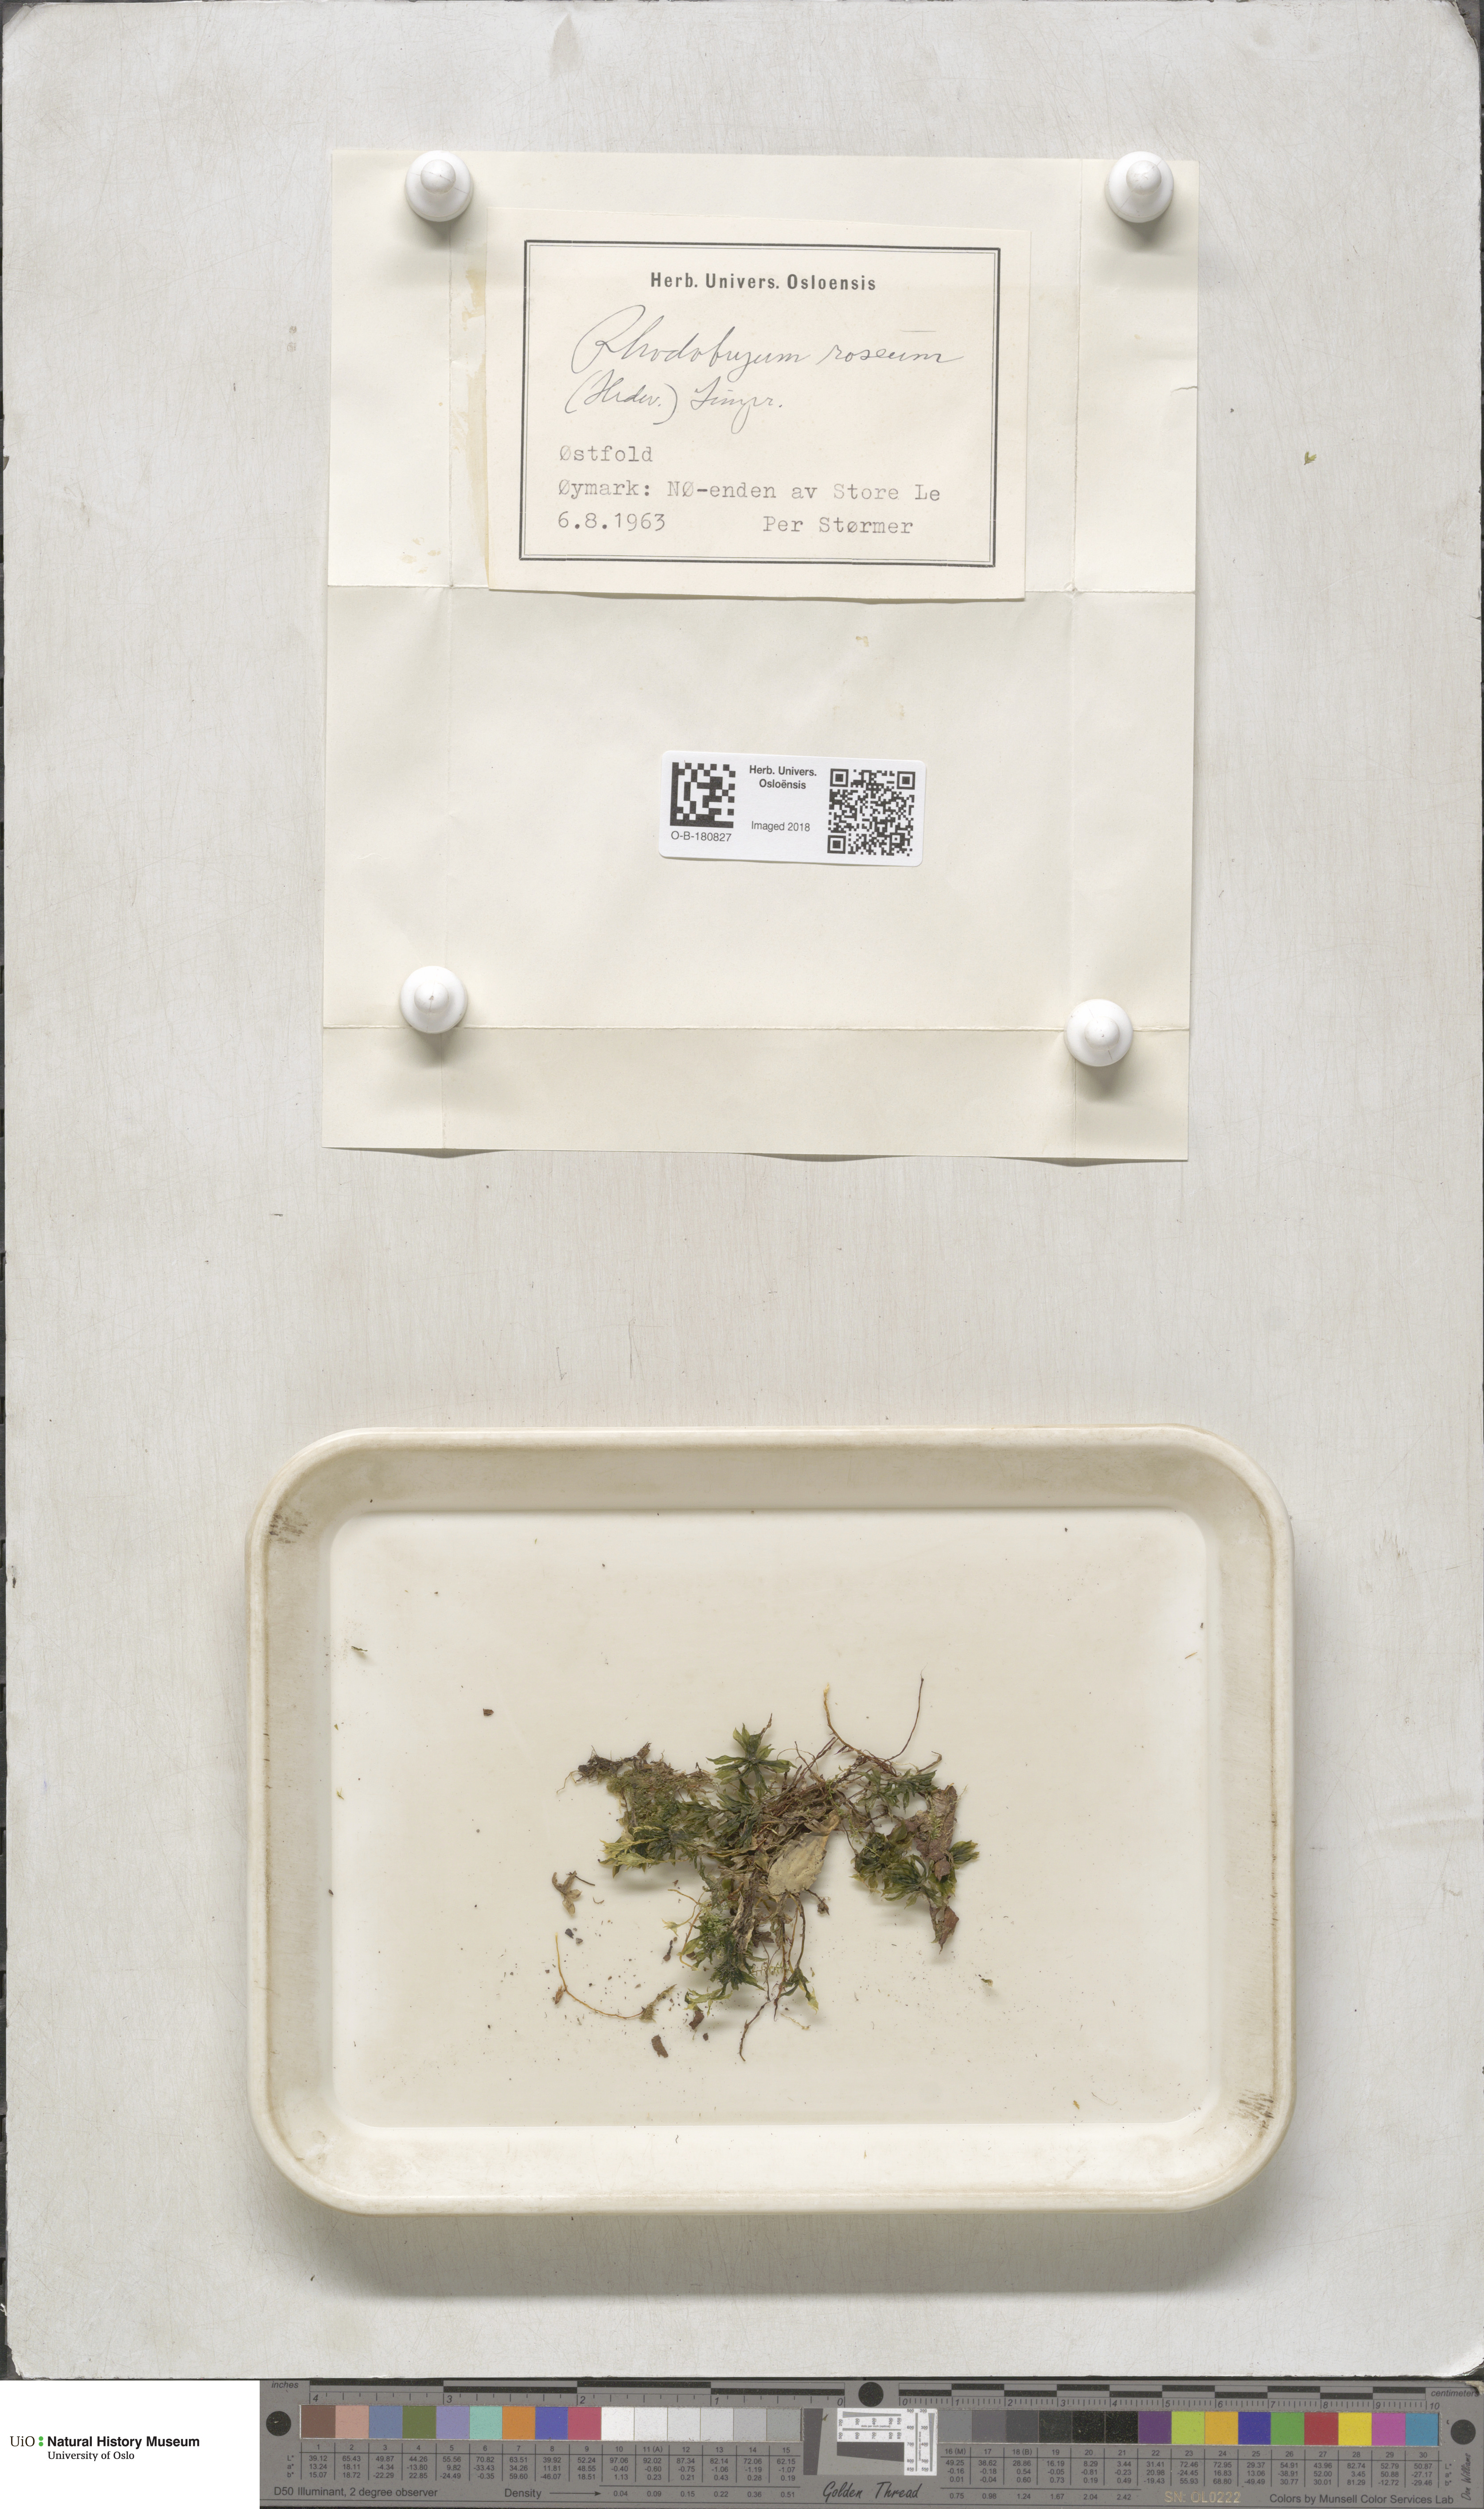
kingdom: Plantae
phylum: Bryophyta
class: Bryopsida
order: Bryales
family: Bryaceae
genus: Rhodobryum
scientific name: Rhodobryum roseum
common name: Rose-moss
